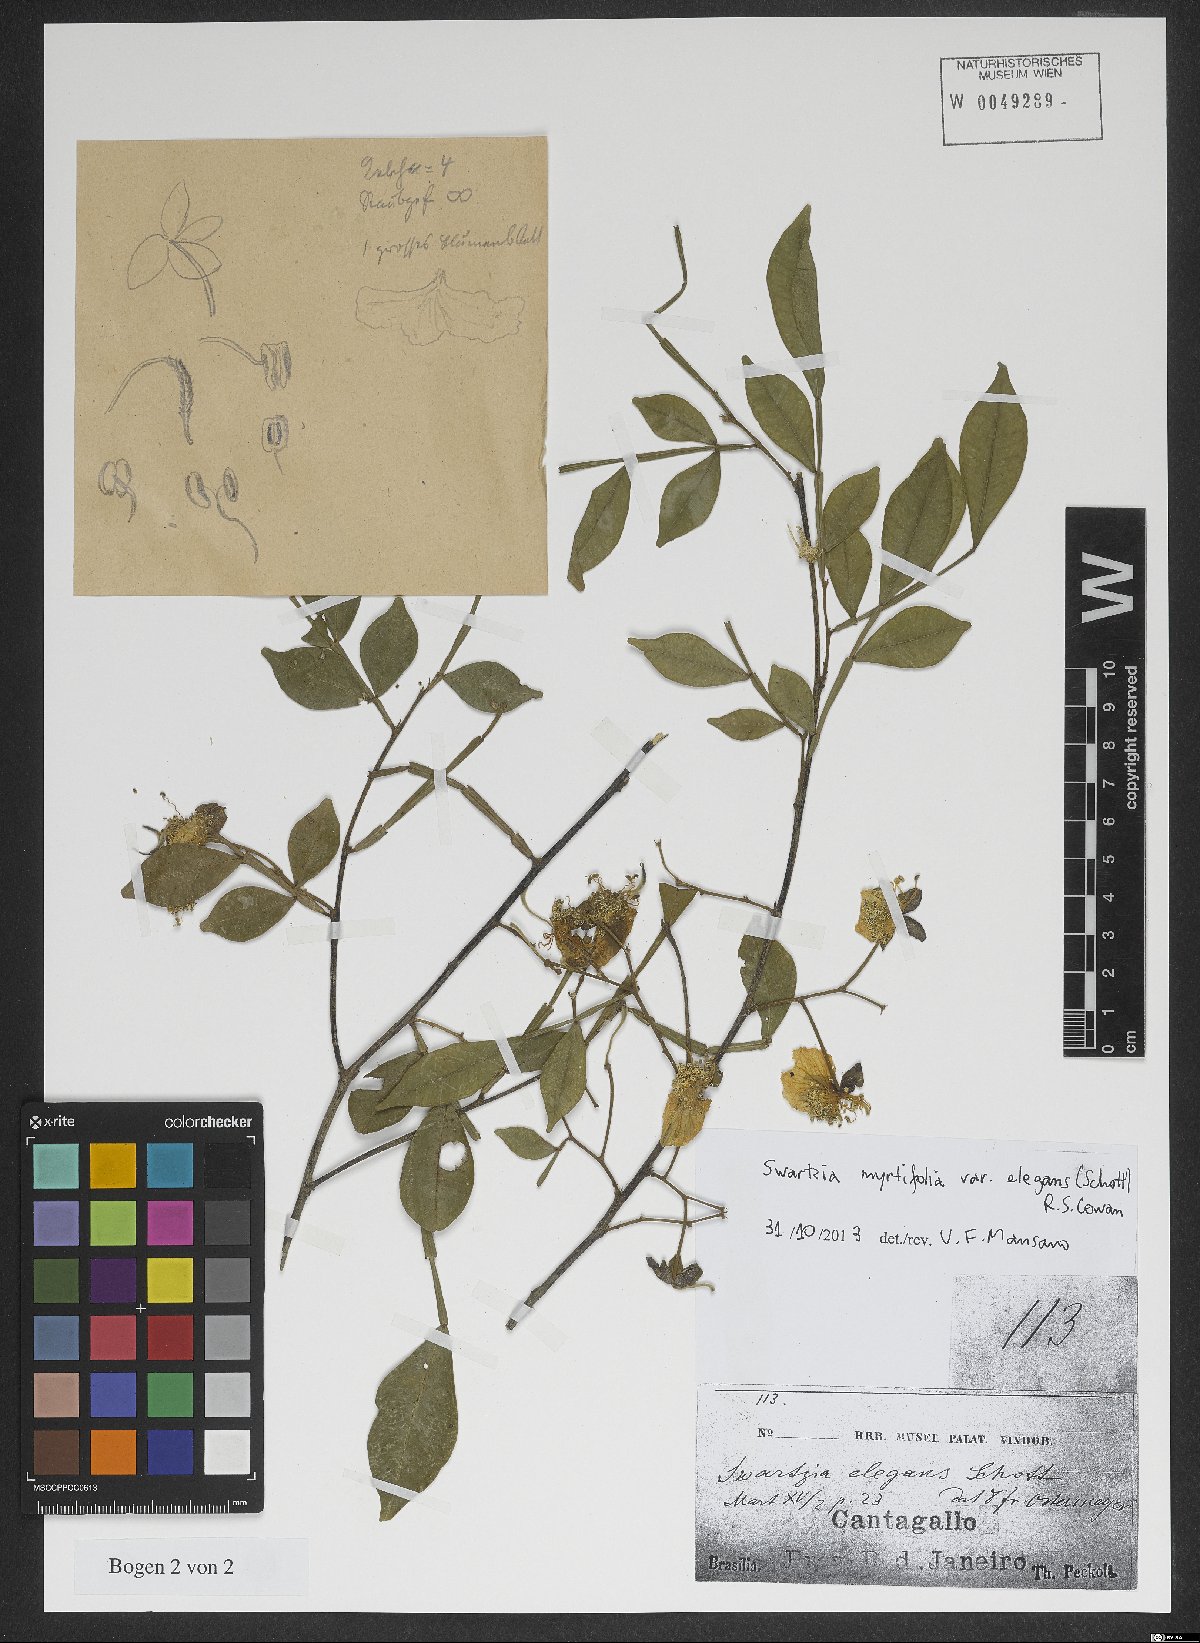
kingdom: Plantae
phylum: Tracheophyta
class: Magnoliopsida
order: Fabales
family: Fabaceae
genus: Swartzia
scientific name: Swartzia myrtifolia
